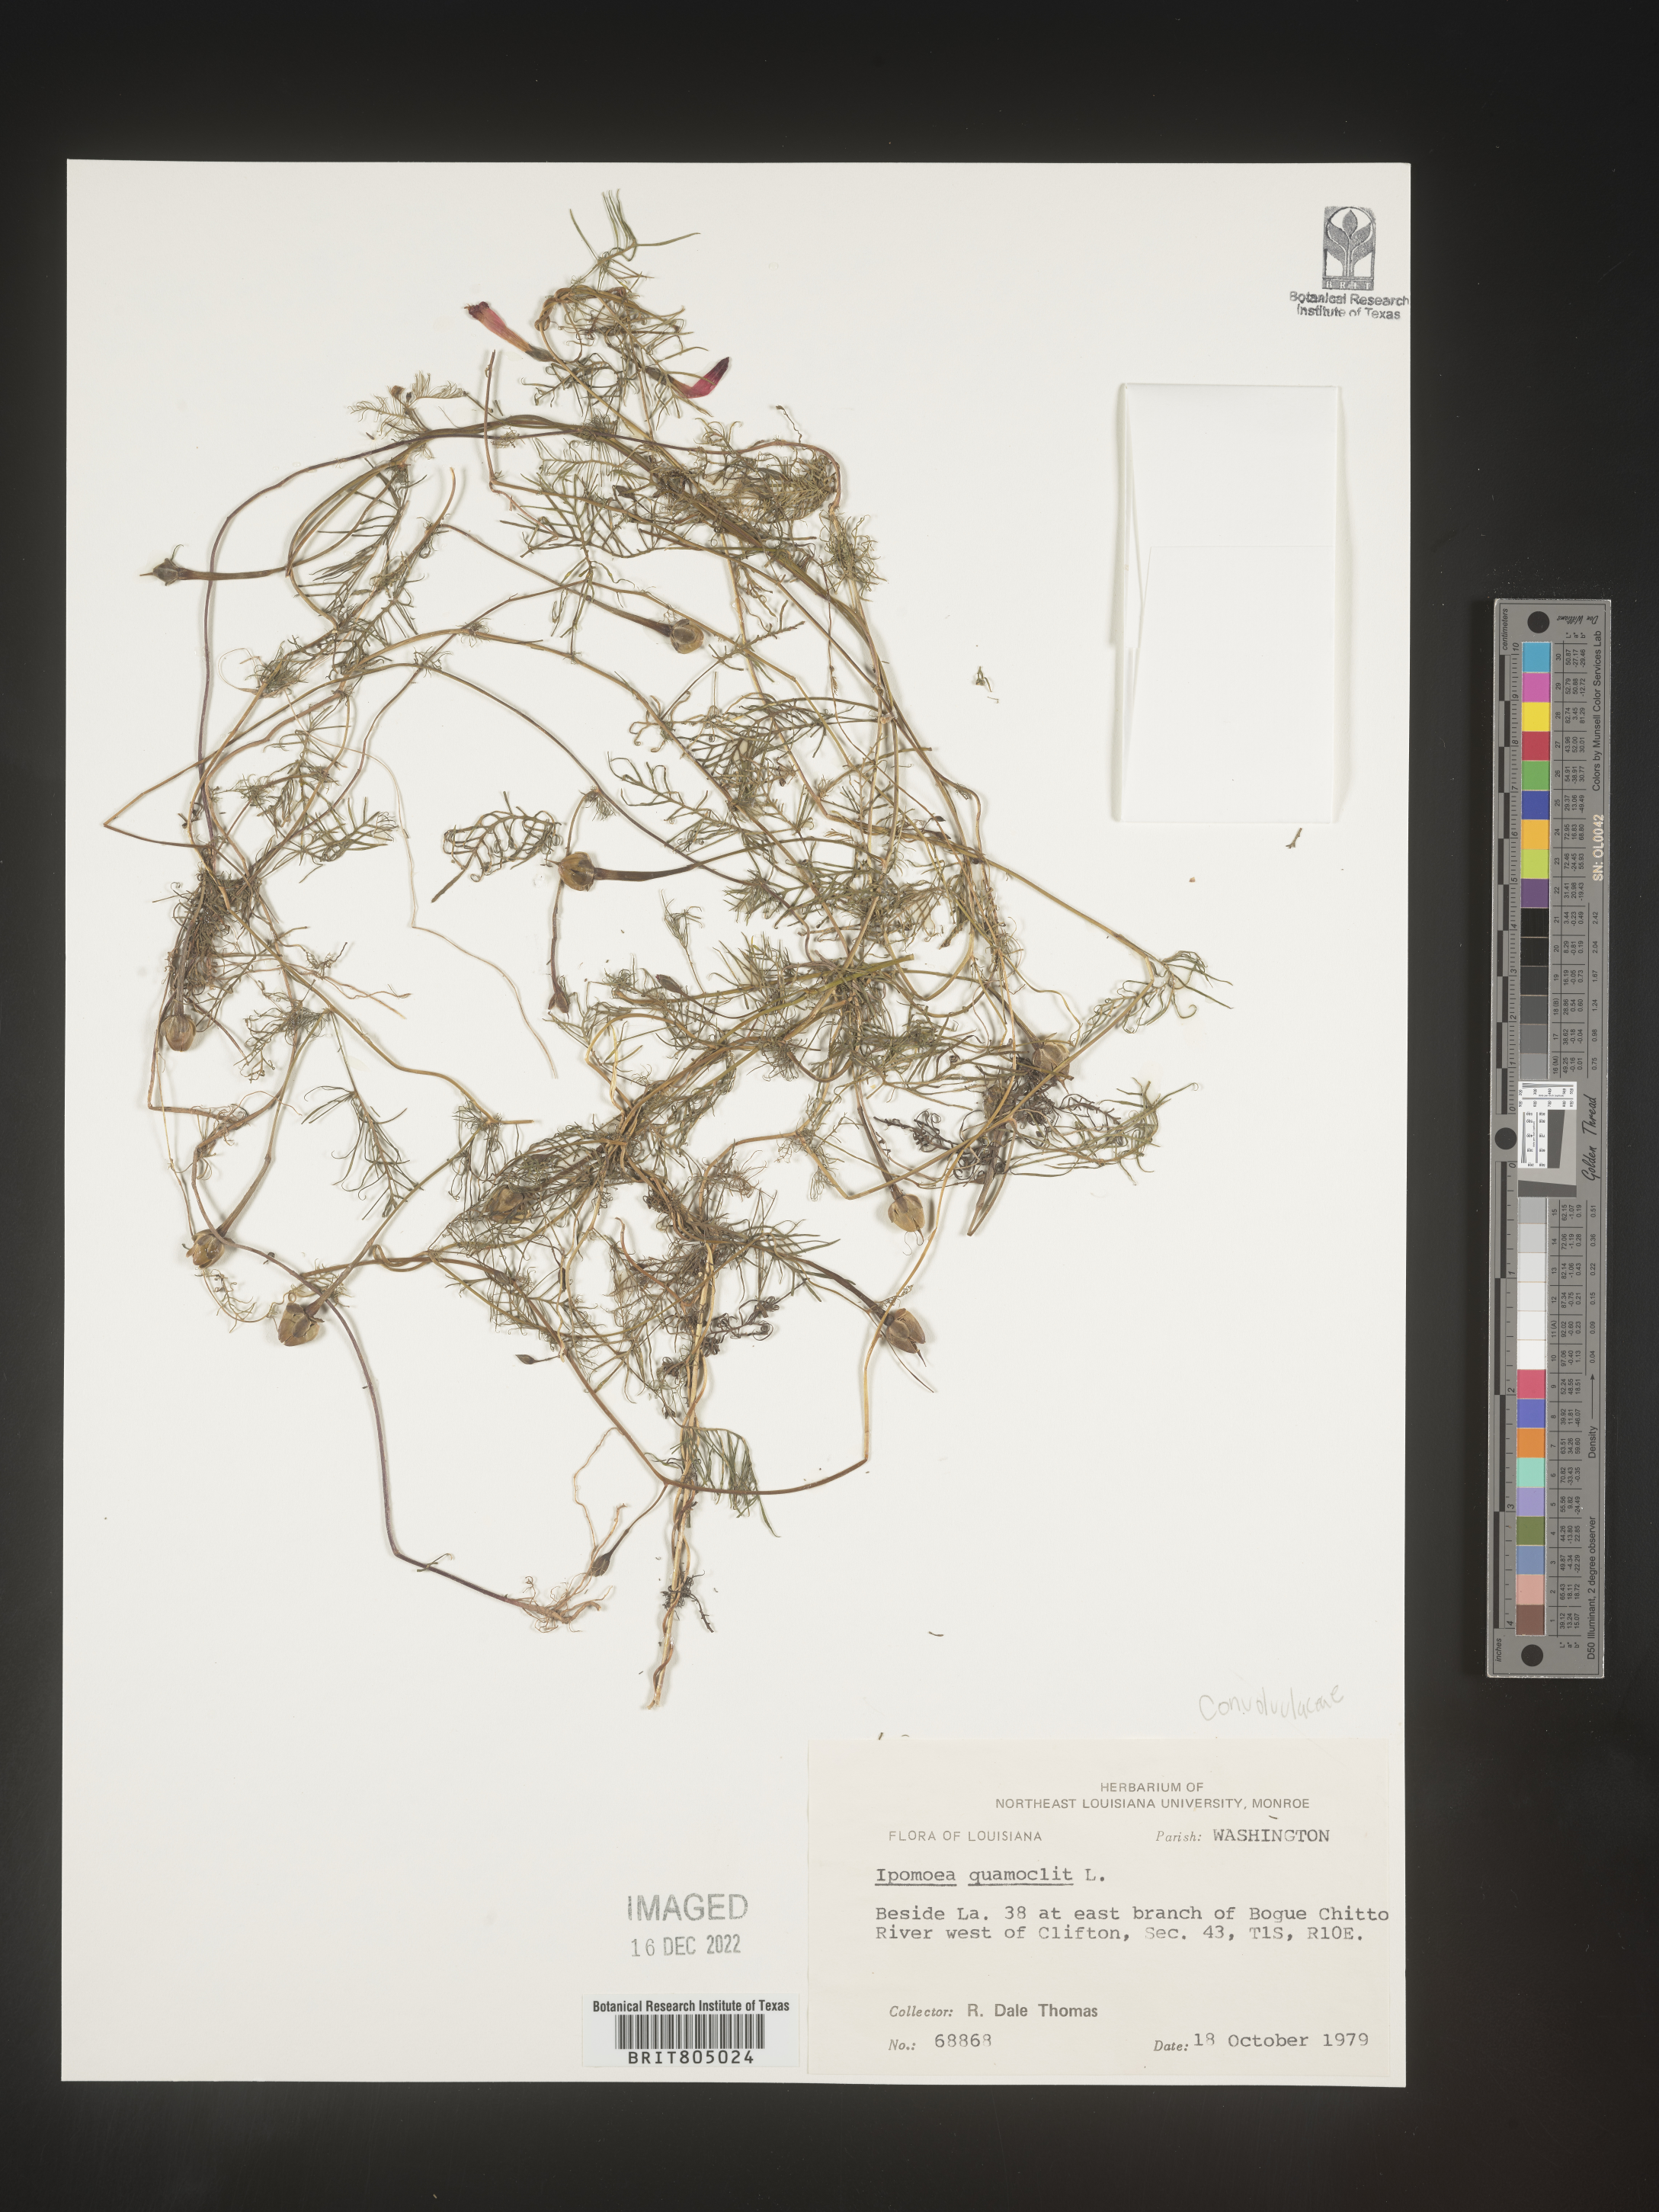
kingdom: Plantae
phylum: Tracheophyta
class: Magnoliopsida
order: Solanales
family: Convolvulaceae
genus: Ipomoea
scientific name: Ipomoea quamoclit
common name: Cypress vine
